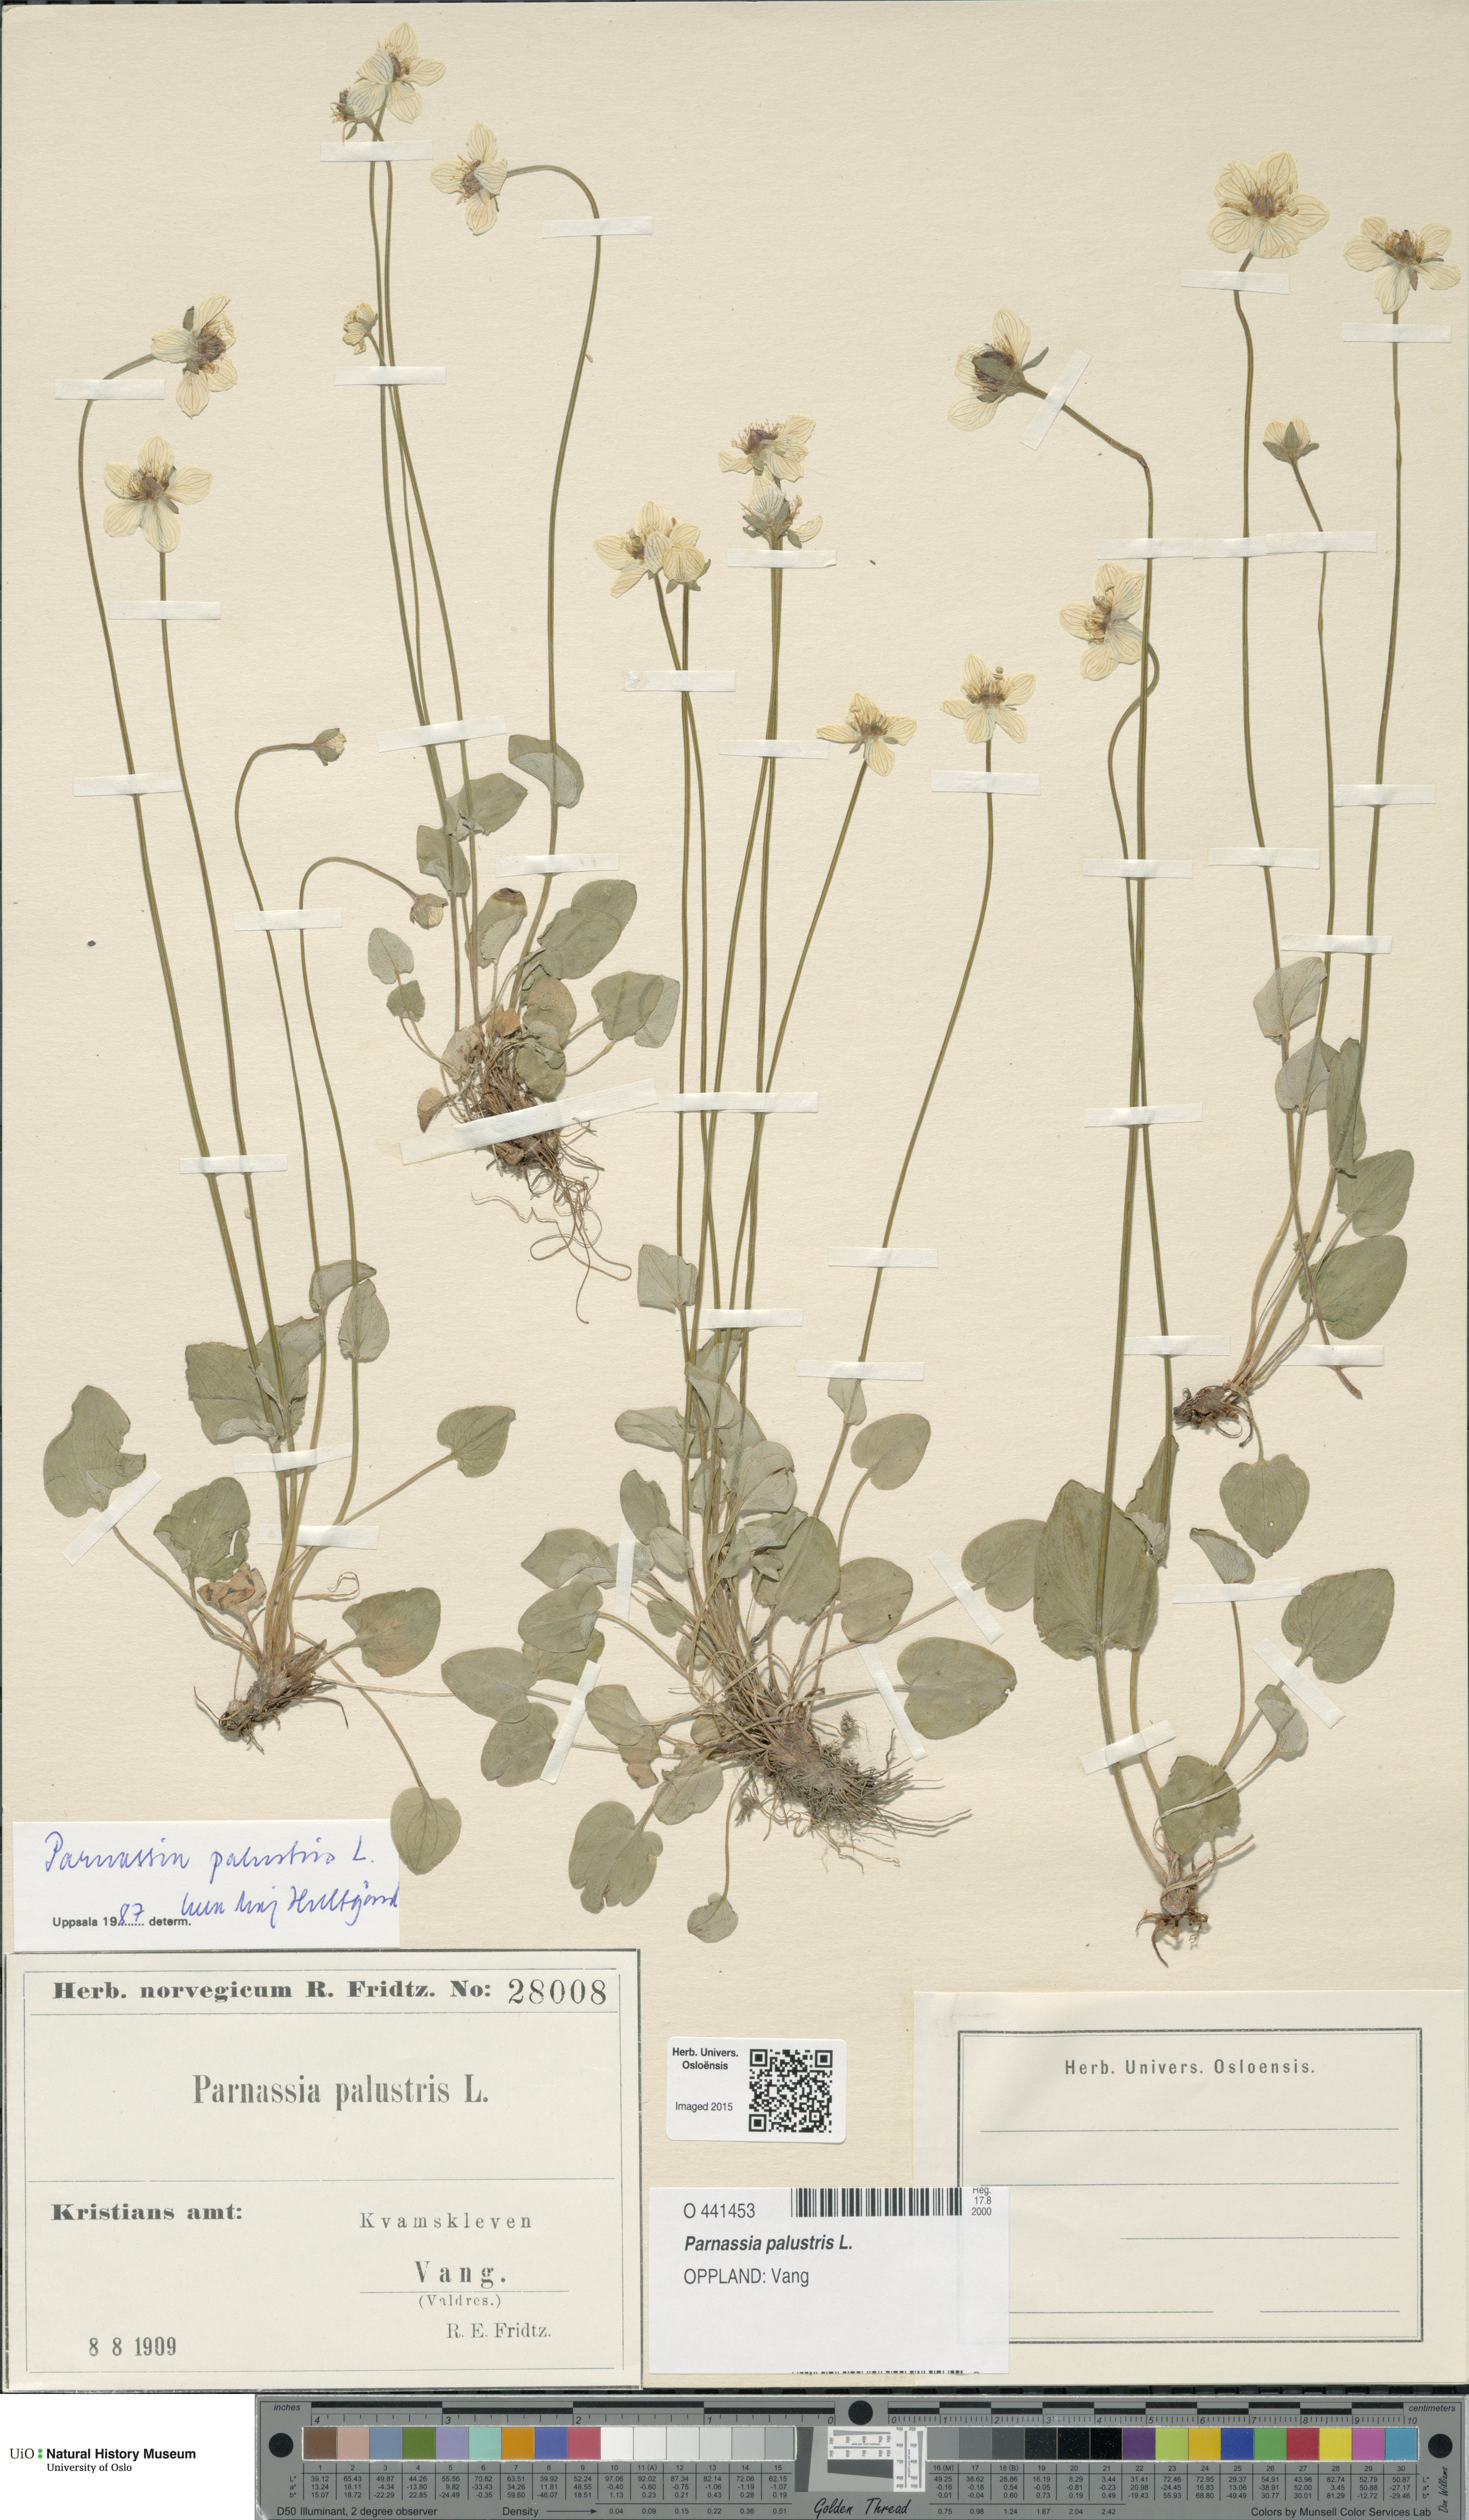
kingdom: Plantae
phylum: Tracheophyta
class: Magnoliopsida
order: Celastrales
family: Parnassiaceae
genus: Parnassia
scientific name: Parnassia palustris
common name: Grass-of-parnassus
